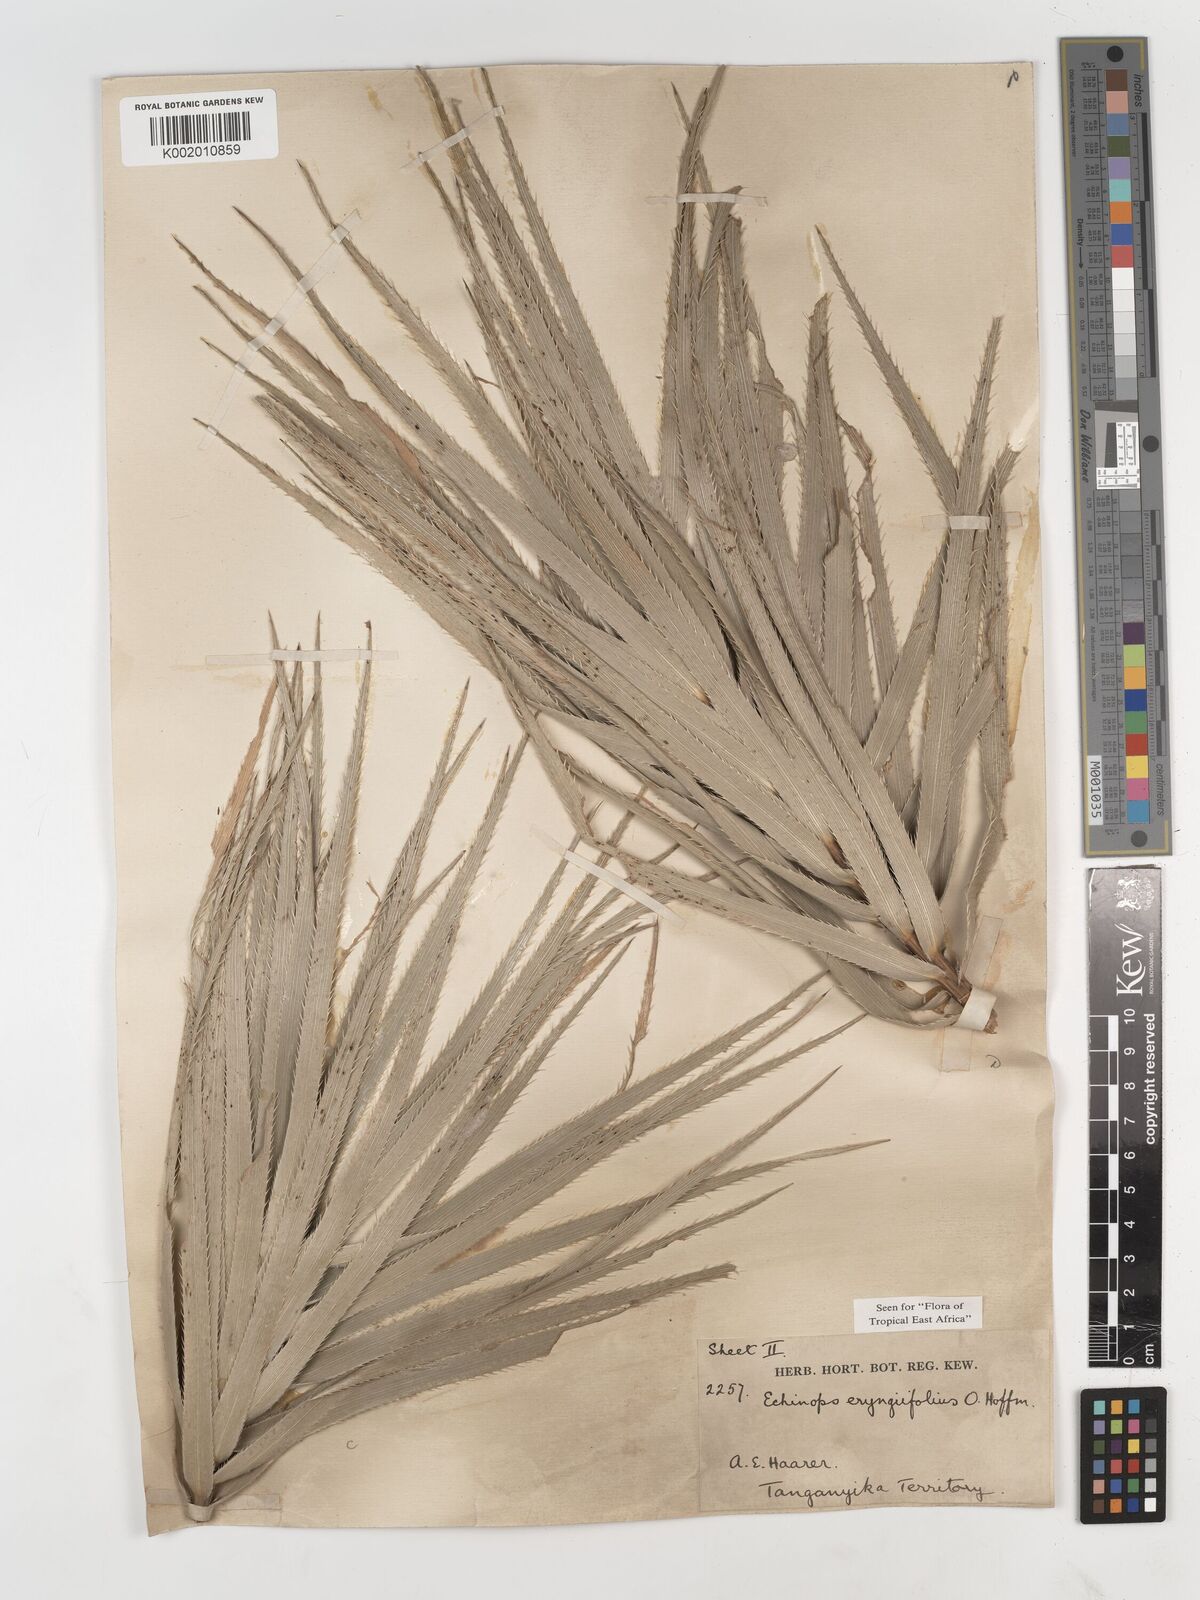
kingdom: Plantae
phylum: Tracheophyta
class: Magnoliopsida
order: Asterales
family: Asteraceae
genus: Echinops
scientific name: Echinops eryngiifolius
